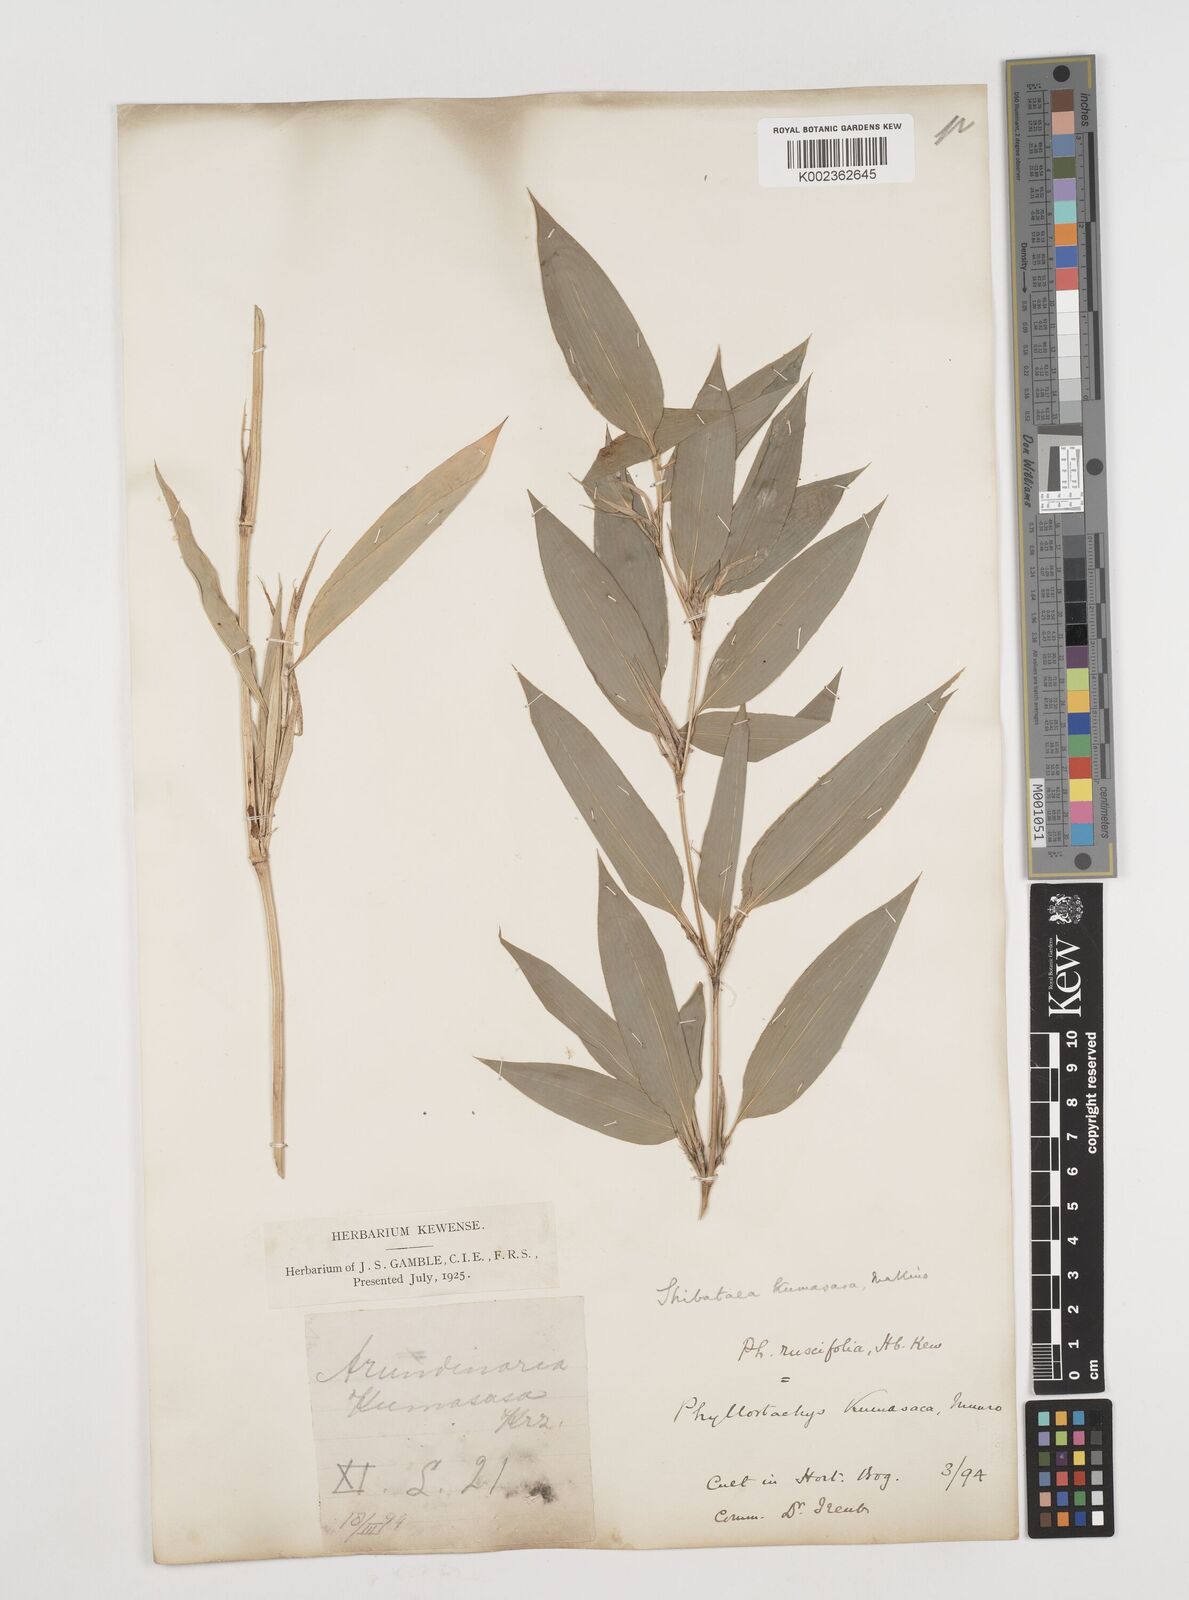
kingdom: Plantae
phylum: Tracheophyta
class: Liliopsida
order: Poales
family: Poaceae
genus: Shibataea
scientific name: Shibataea kumasasa
